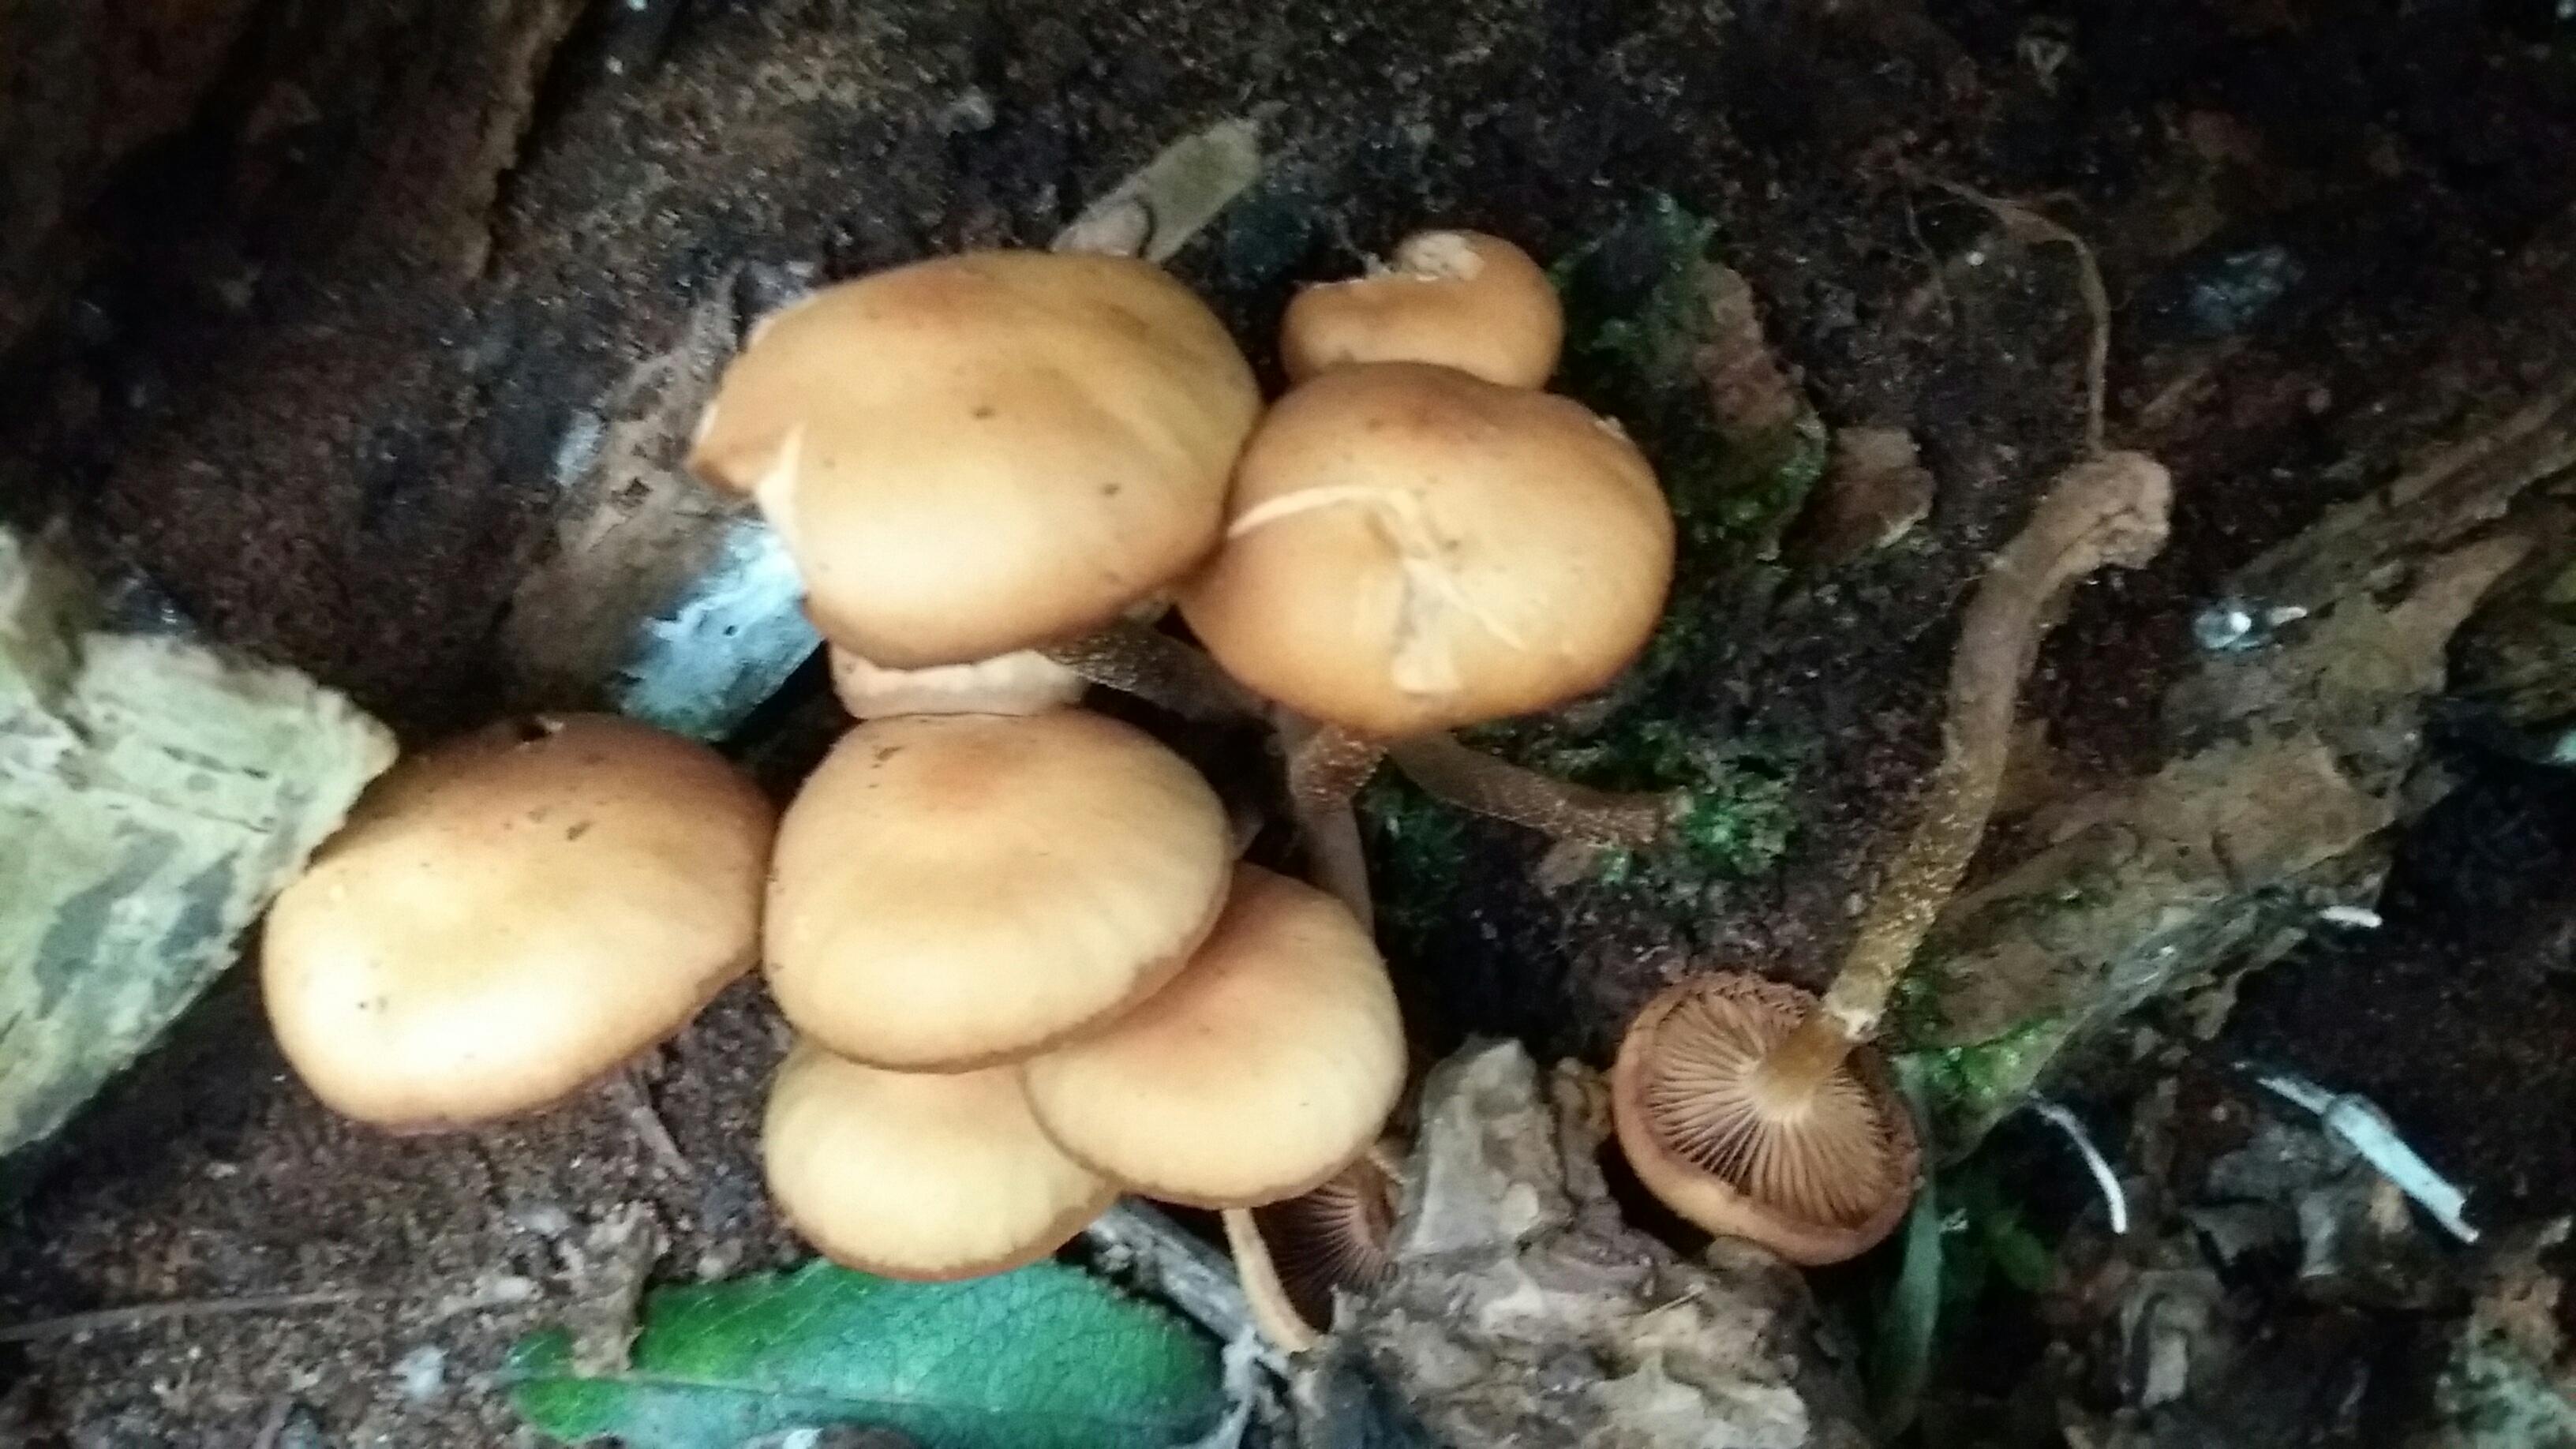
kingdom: Fungi
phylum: Basidiomycota
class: Agaricomycetes
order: Agaricales
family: Strophariaceae
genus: Kuehneromyces
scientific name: Kuehneromyces mutabilis
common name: foranderlig skælhat
